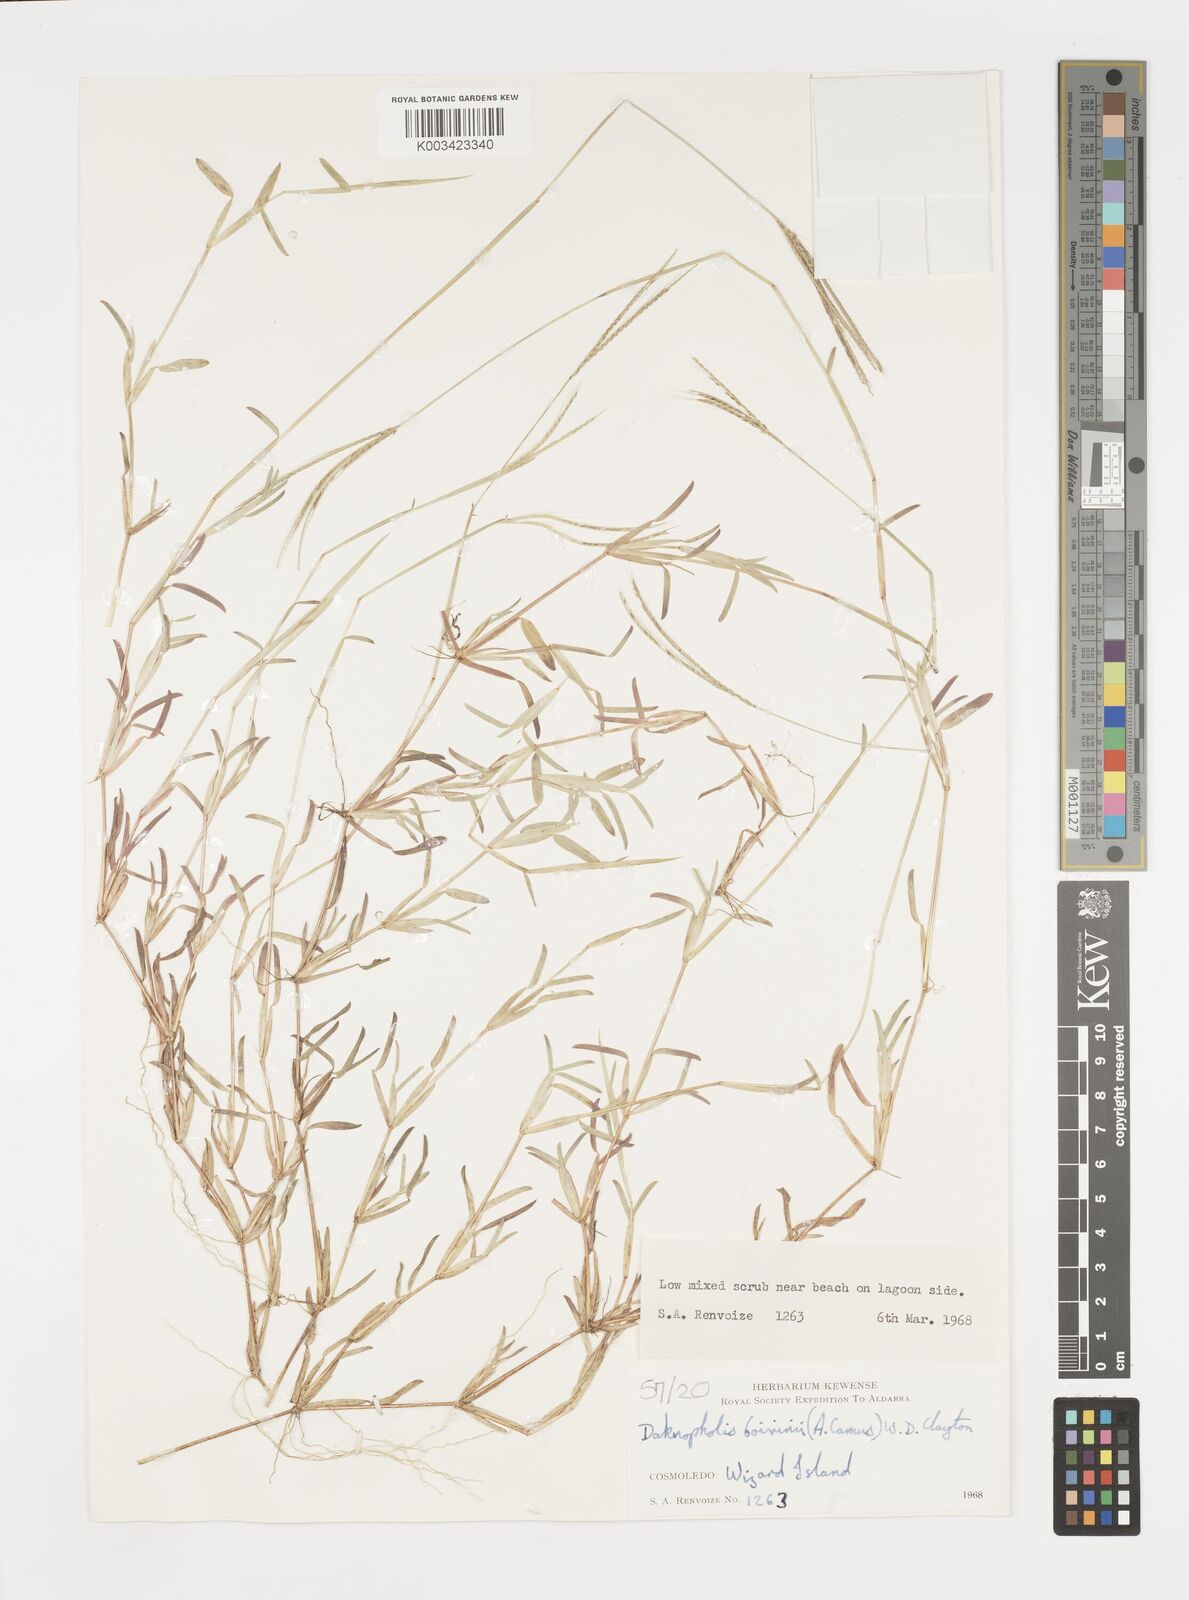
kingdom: Plantae
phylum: Tracheophyta
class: Liliopsida
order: Poales
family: Poaceae
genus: Daknopholis
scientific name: Daknopholis boivinii
